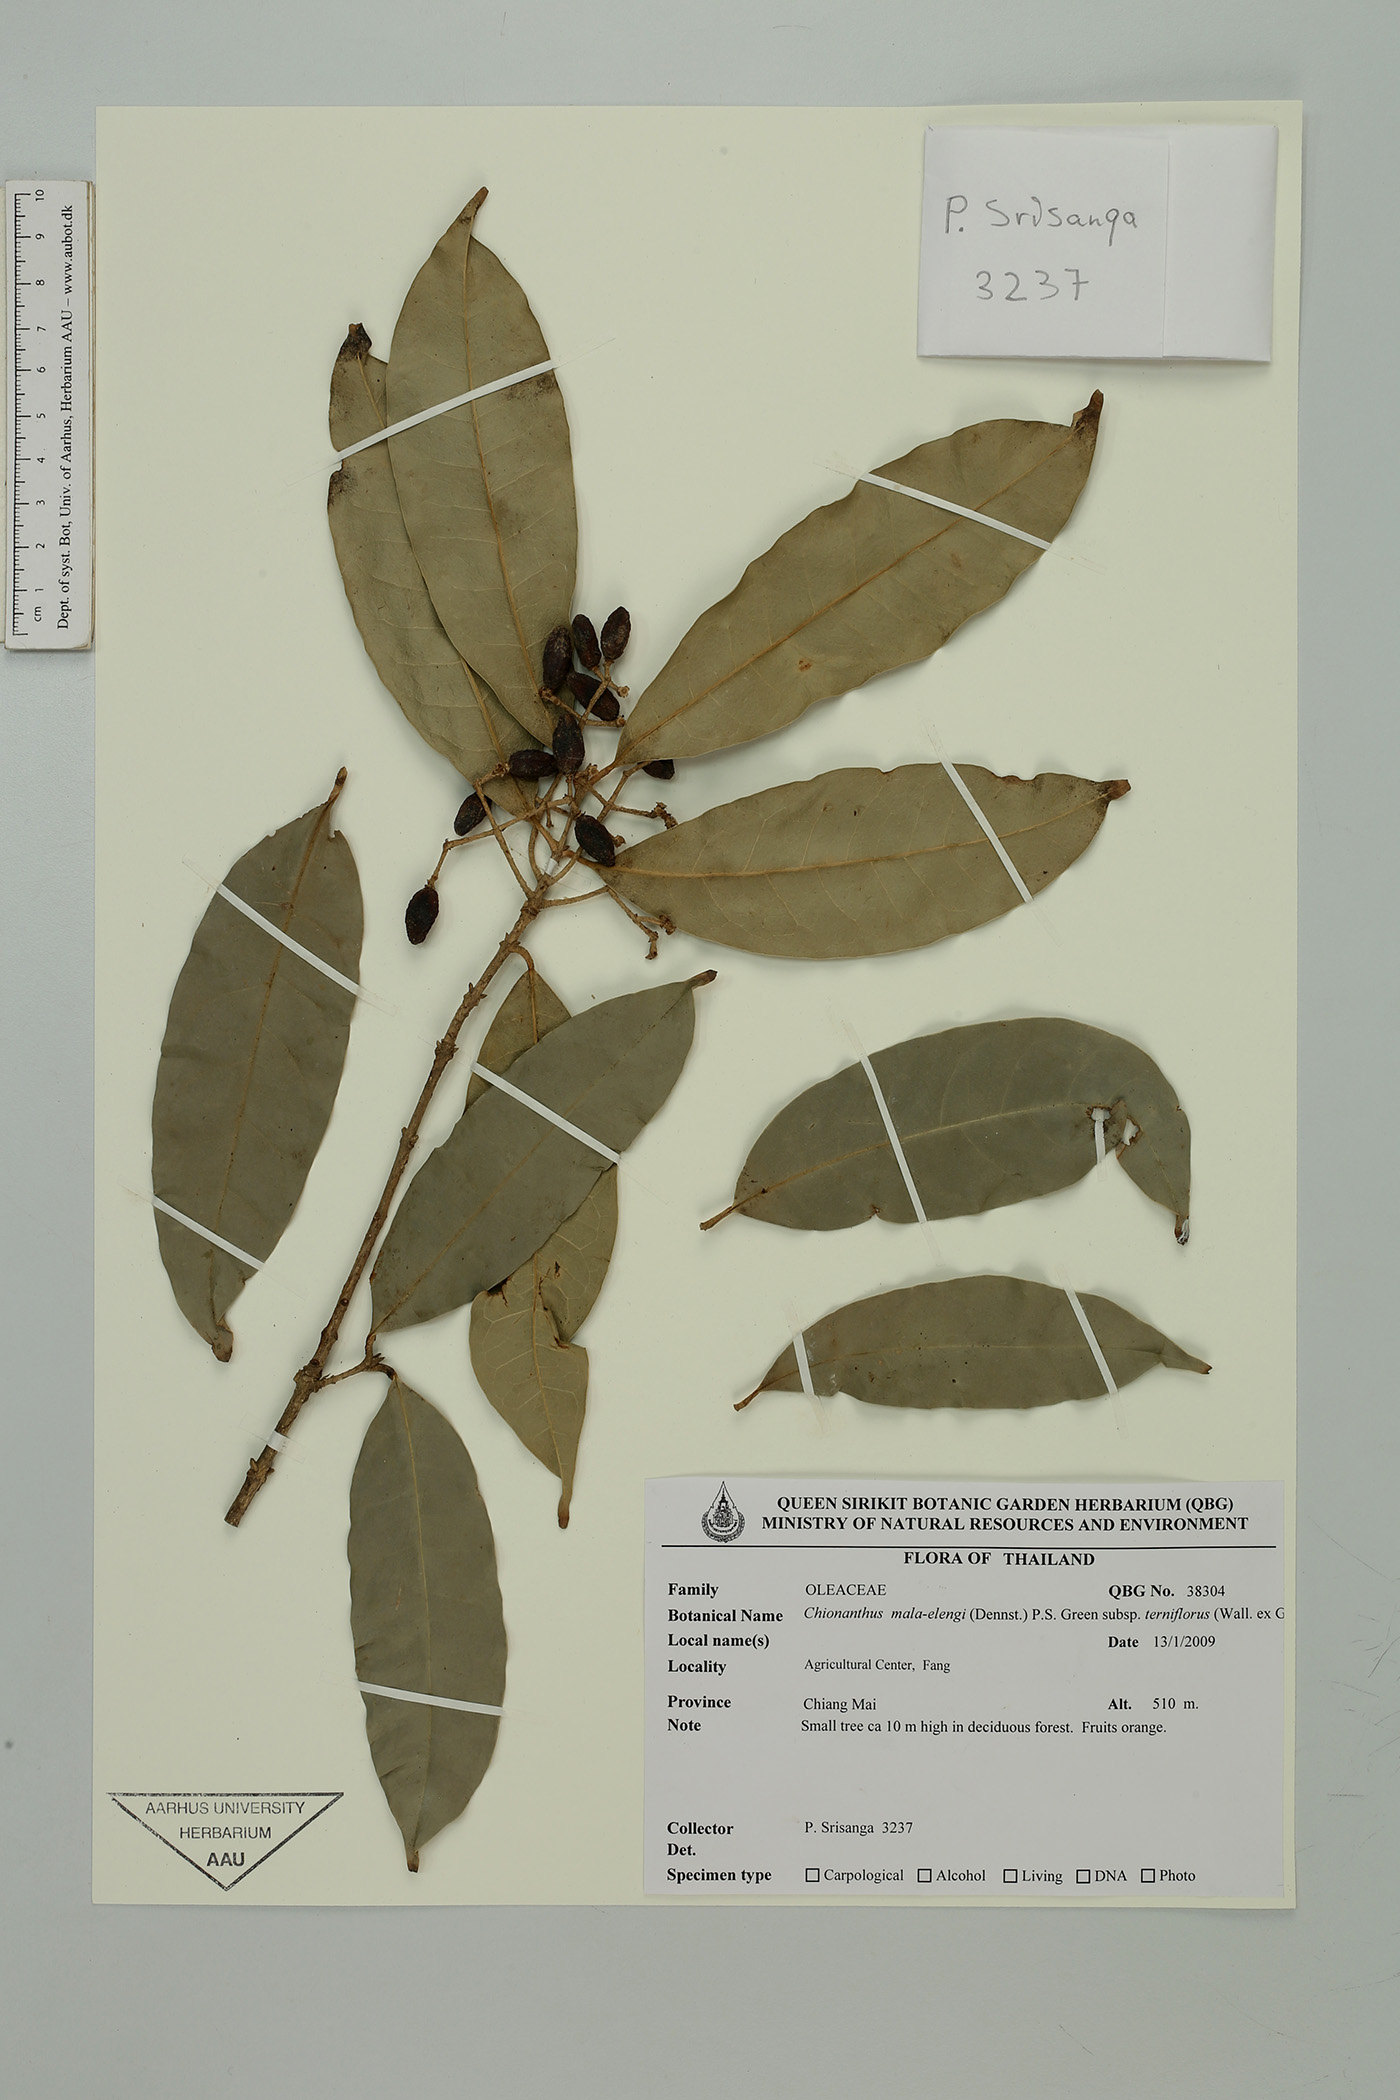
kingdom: Plantae
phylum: Tracheophyta
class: Magnoliopsida
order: Lamiales
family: Oleaceae
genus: Chionanthus
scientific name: Chionanthus mala-elengi
